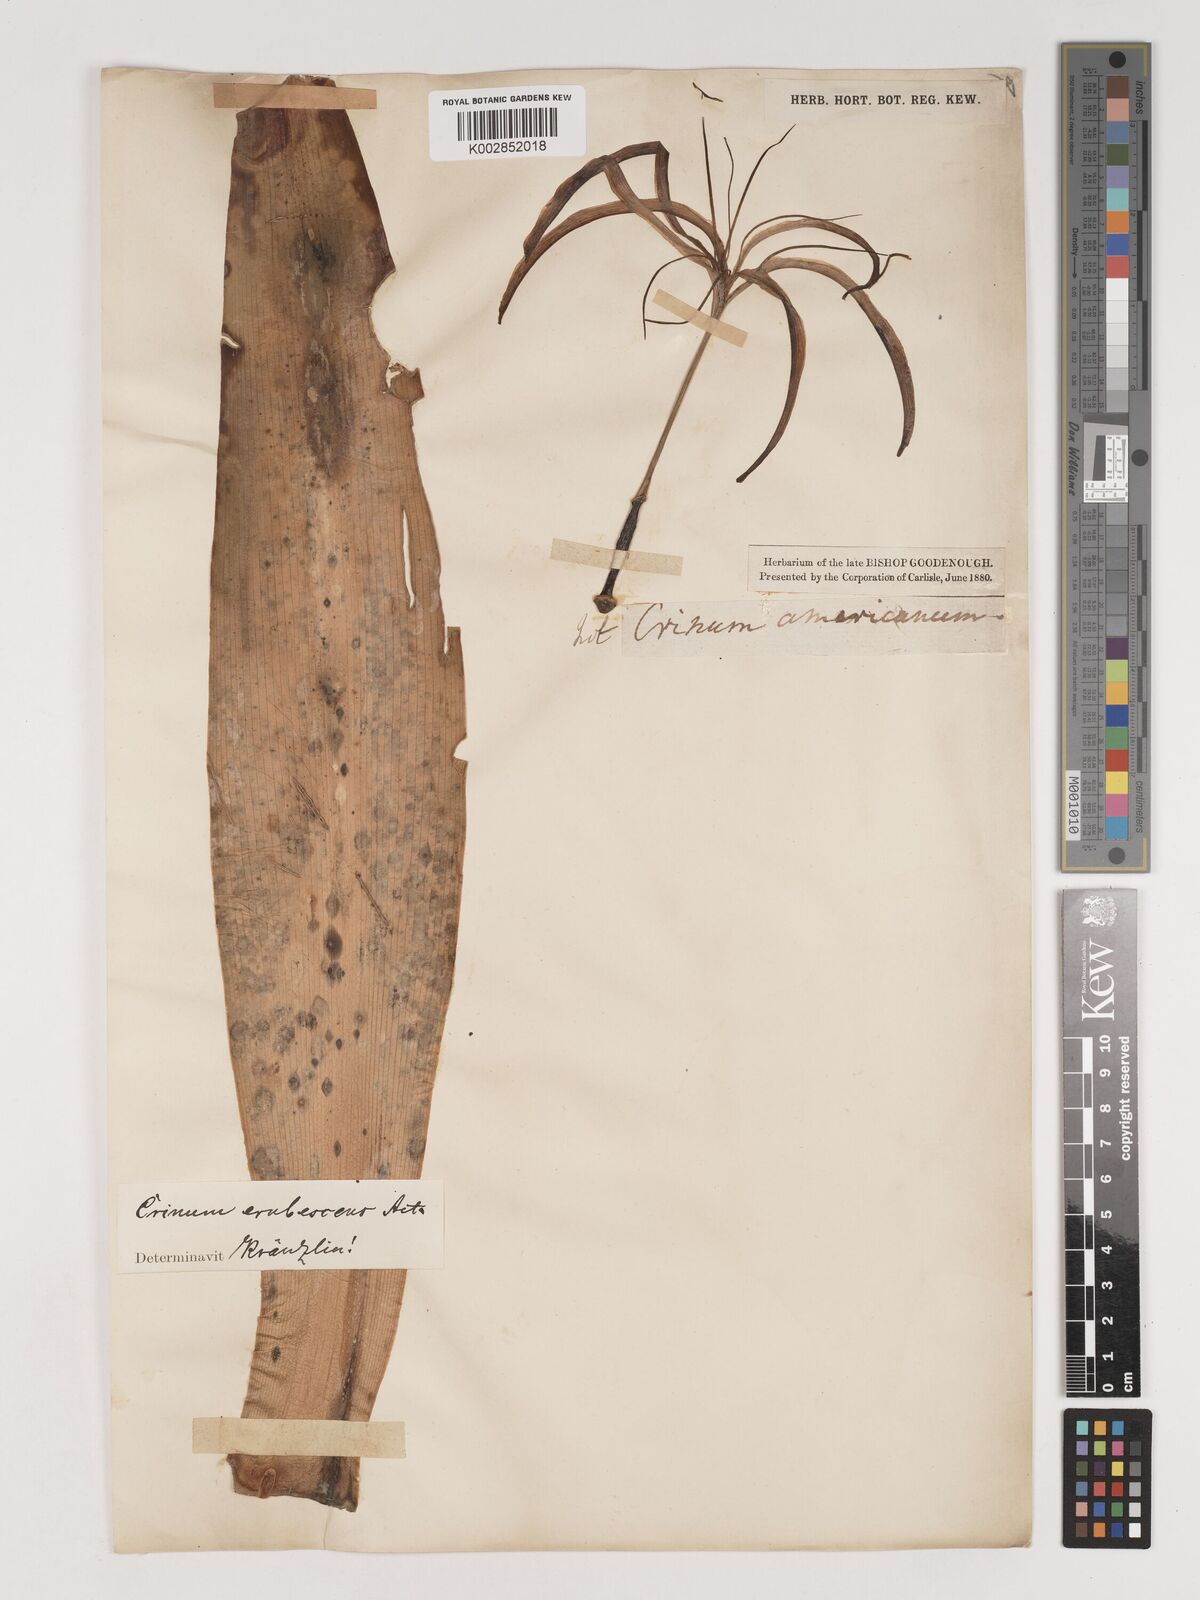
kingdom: Plantae
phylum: Tracheophyta
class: Liliopsida
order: Asparagales
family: Amaryllidaceae
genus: Crinum
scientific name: Crinum erubescens
